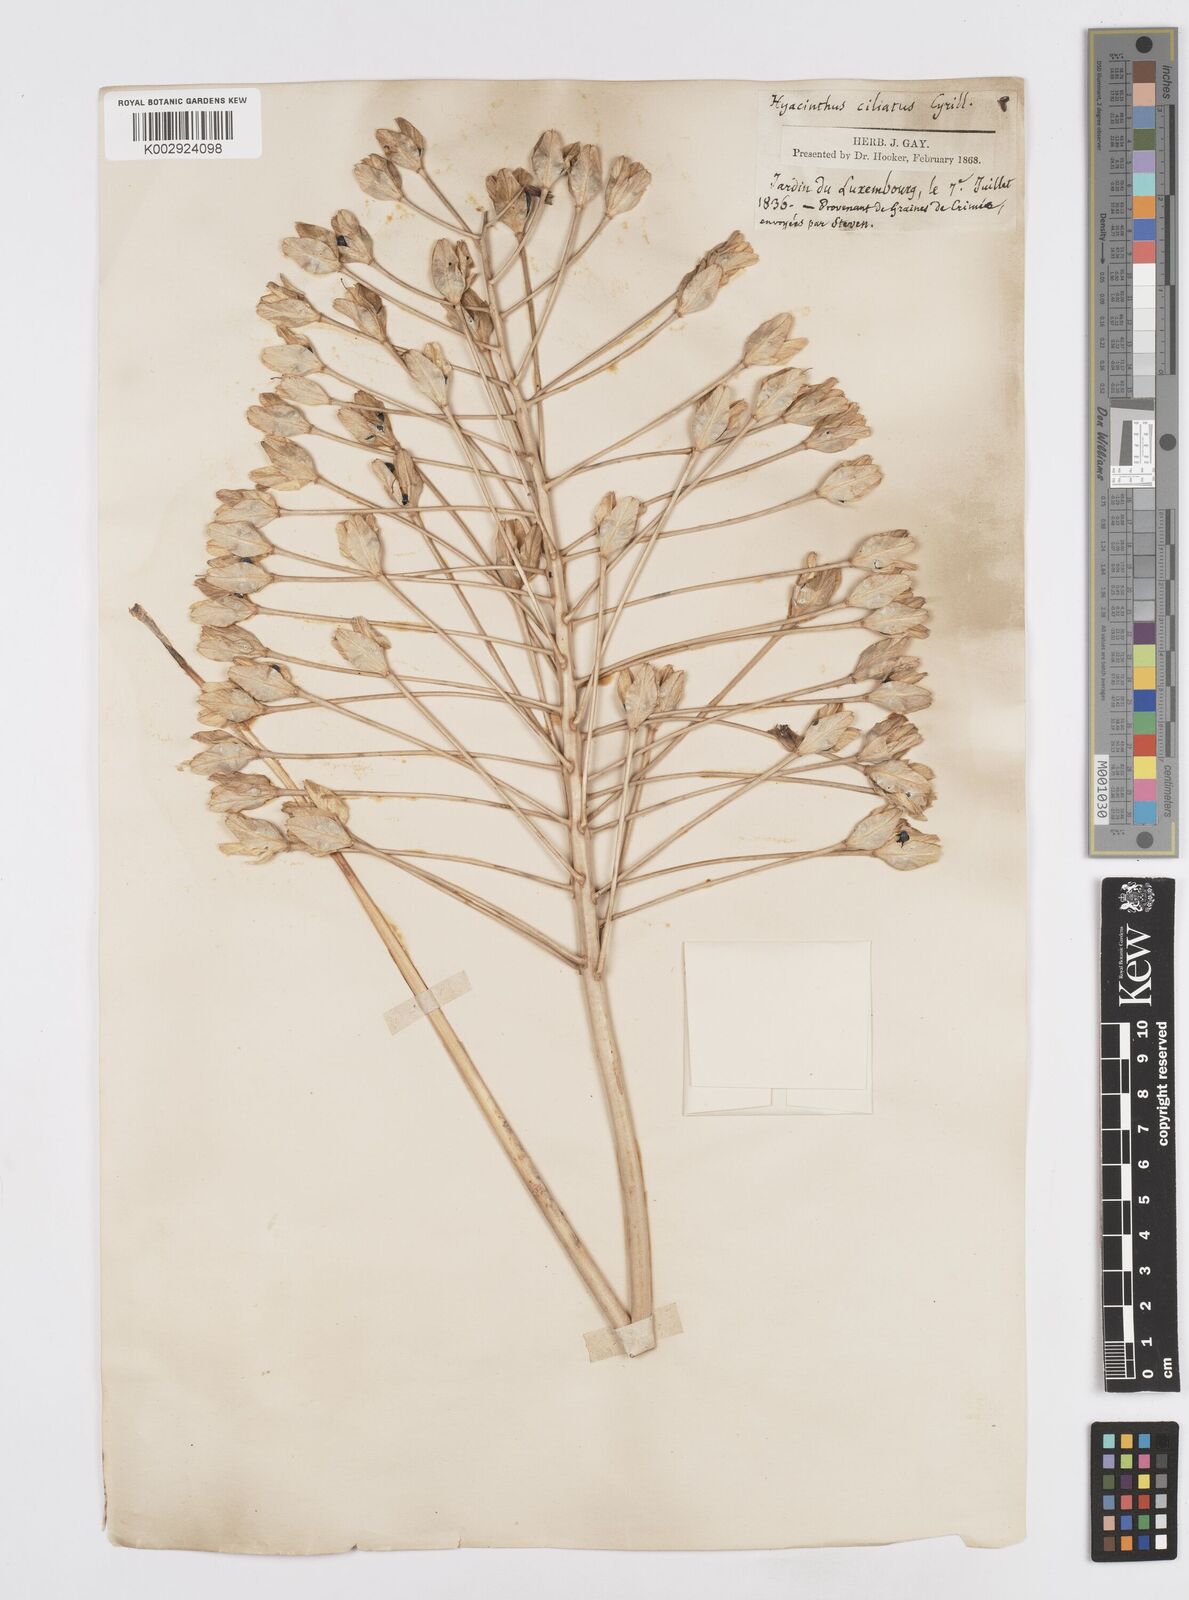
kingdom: Plantae
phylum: Tracheophyta
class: Liliopsida
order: Asparagales
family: Asparagaceae
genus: Bellevalia
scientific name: Bellevalia ciliata
